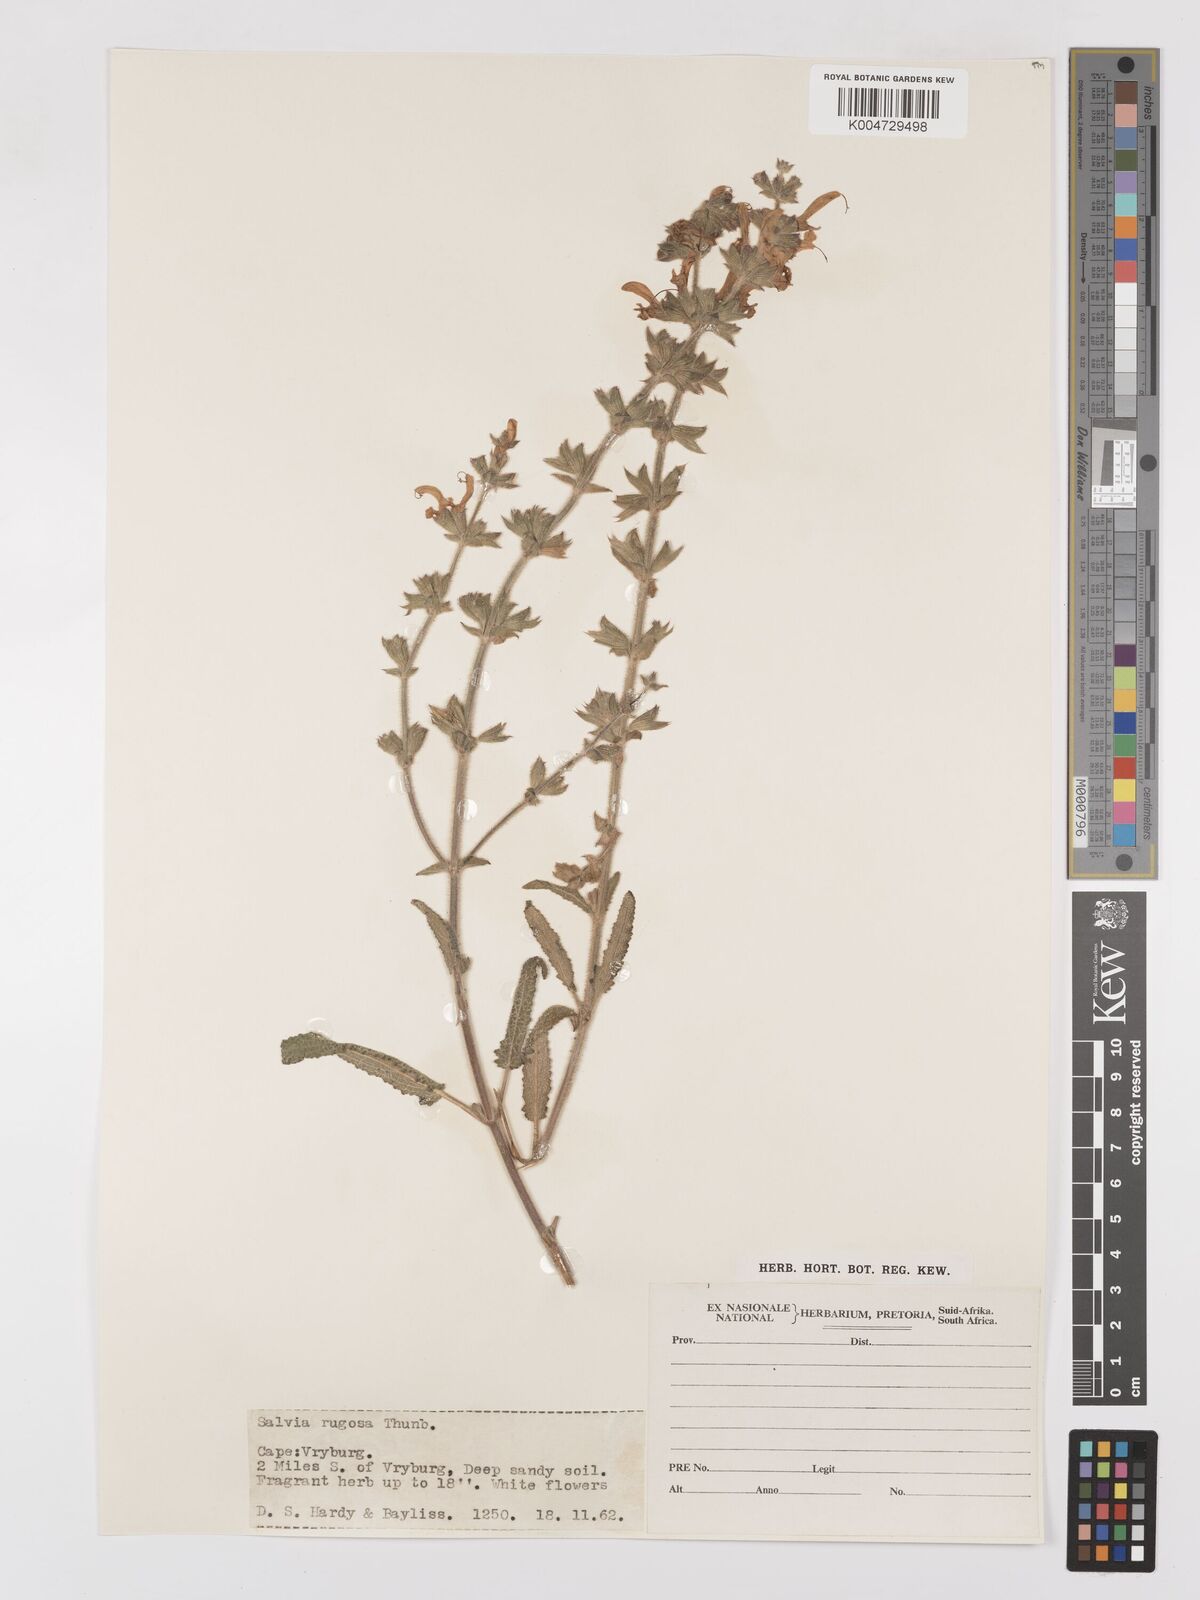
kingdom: Plantae
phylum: Tracheophyta
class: Magnoliopsida
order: Lamiales
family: Lamiaceae
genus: Salvia
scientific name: Salvia
